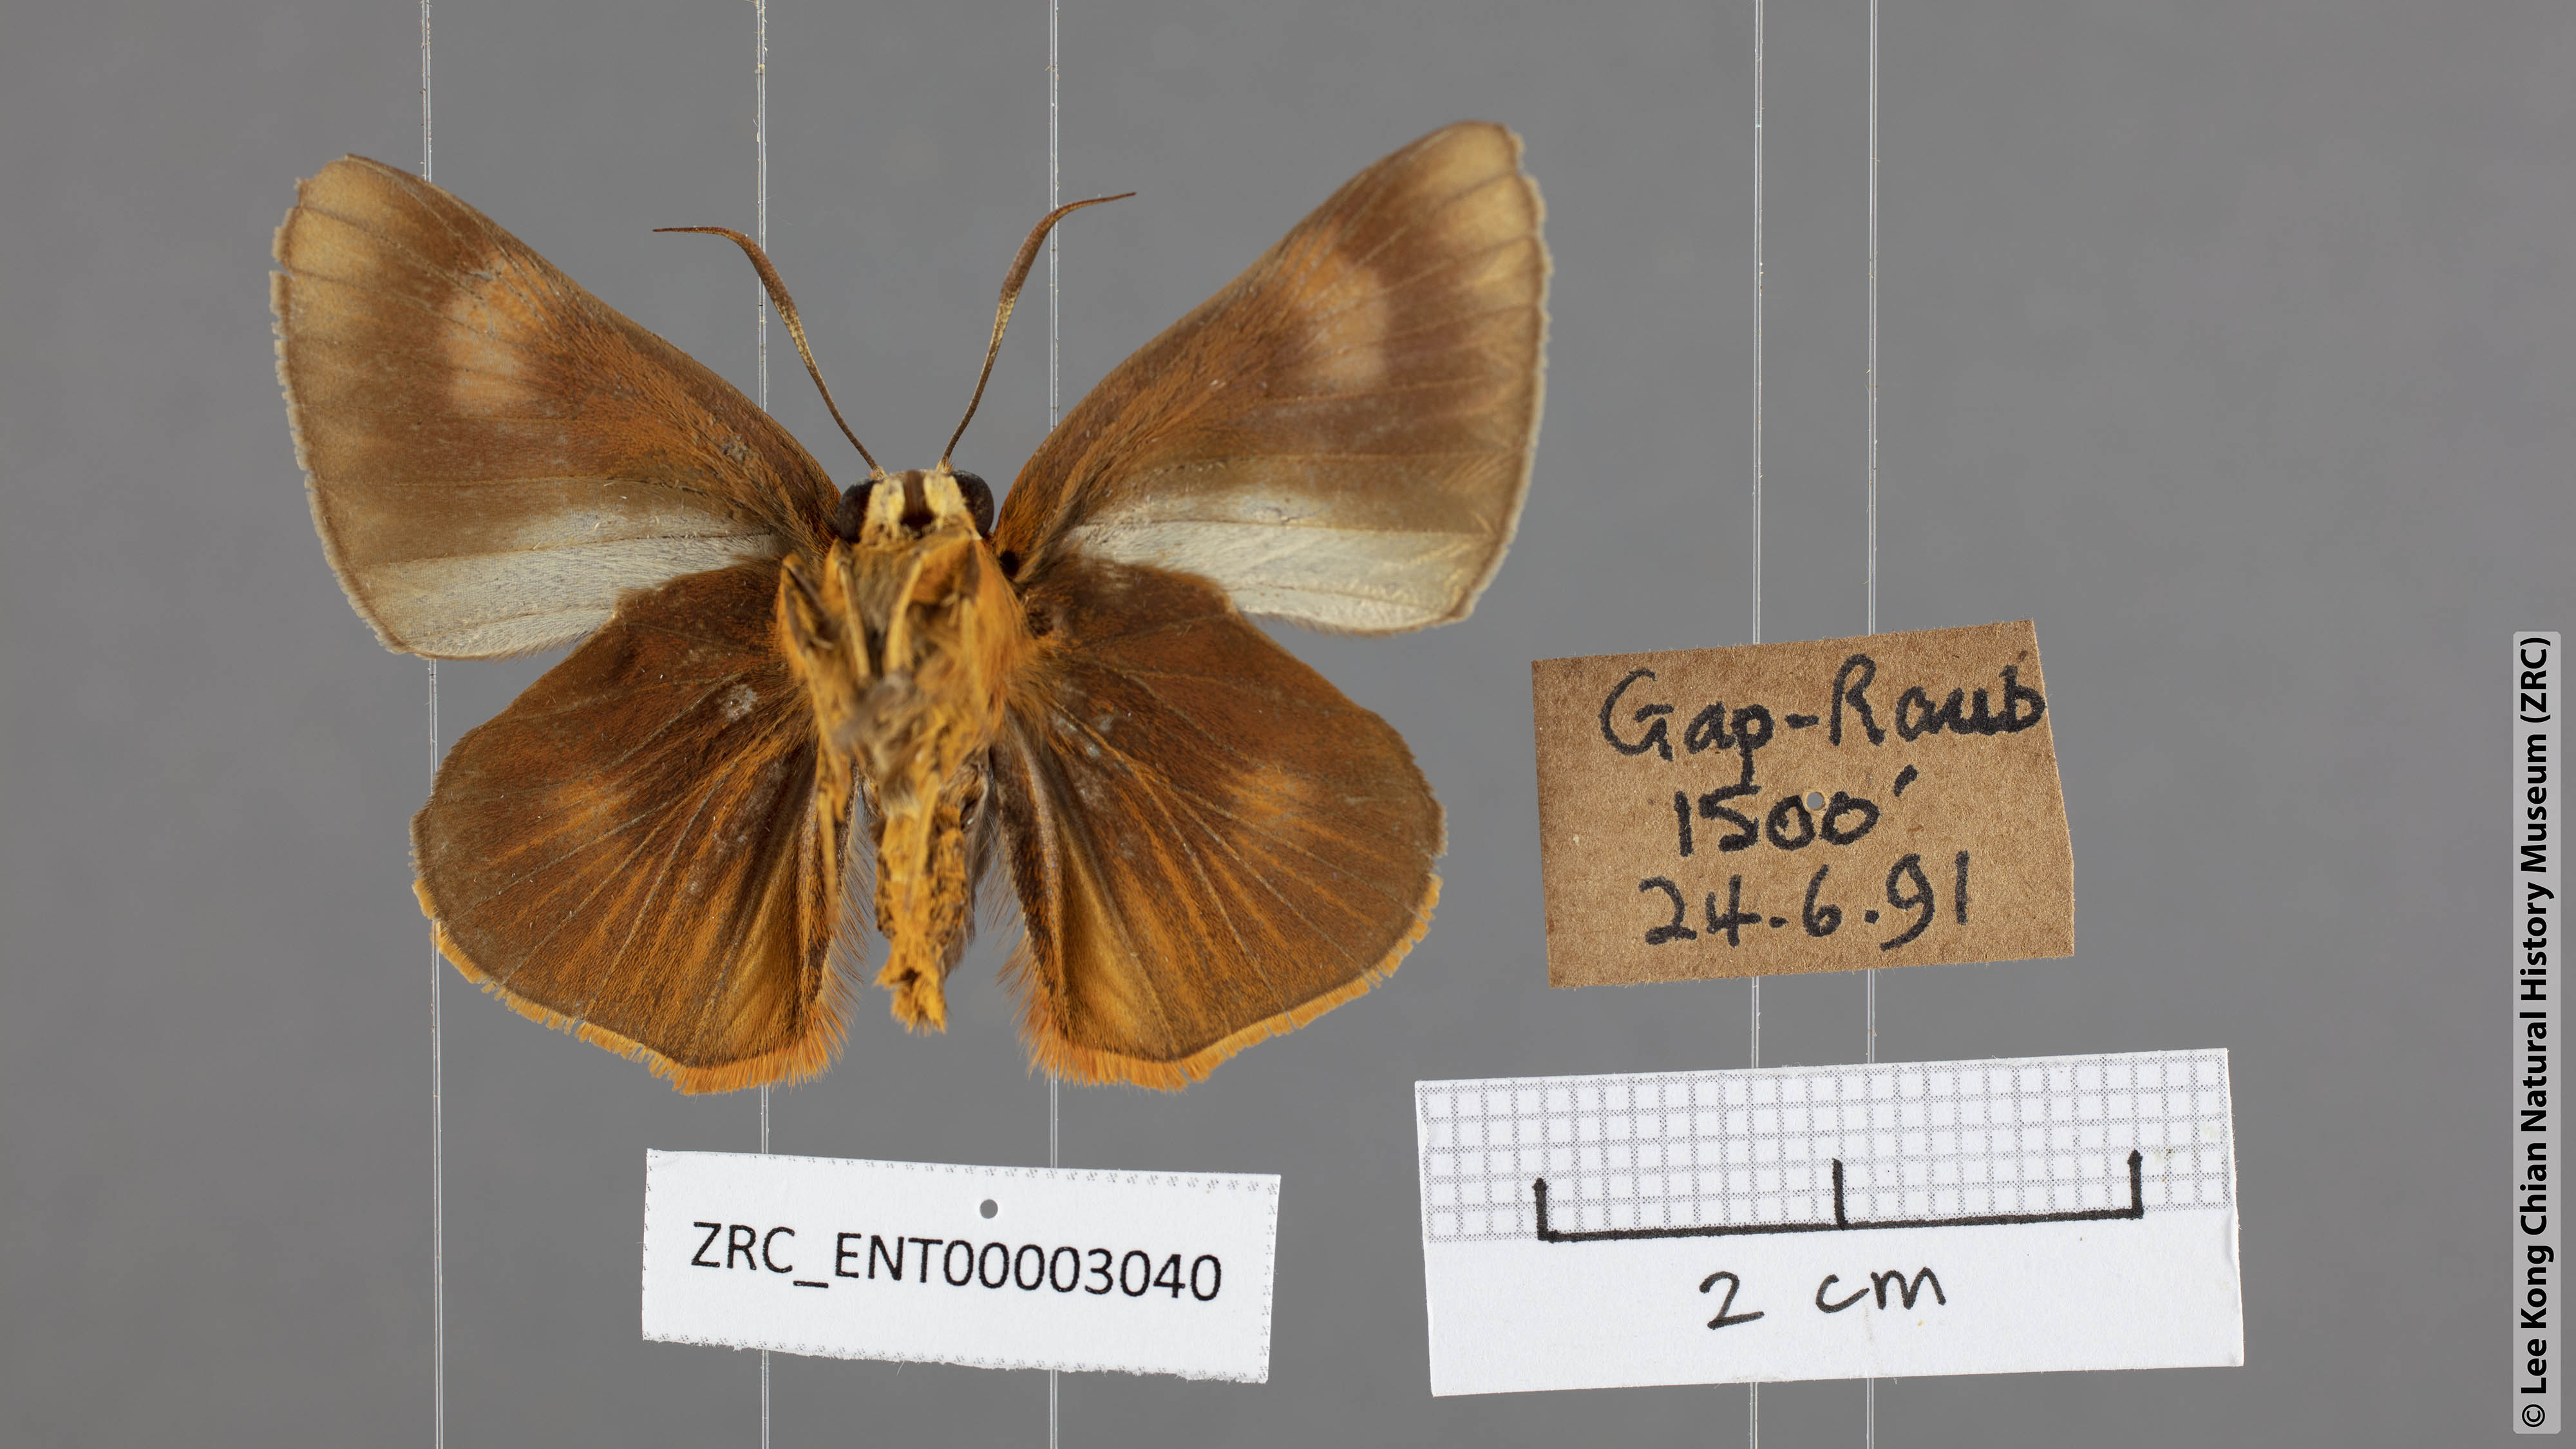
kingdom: Animalia
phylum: Arthropoda
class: Insecta
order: Lepidoptera
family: Hesperiidae
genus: Bibasis
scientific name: Bibasis Burara oedipodea
